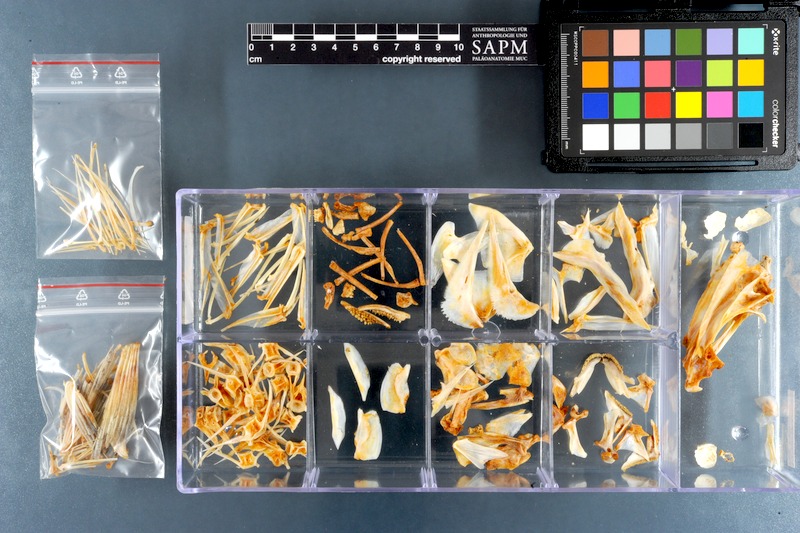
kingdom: Animalia
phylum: Chordata
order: Perciformes
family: Haemulidae
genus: Diagramma
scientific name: Diagramma pictum
